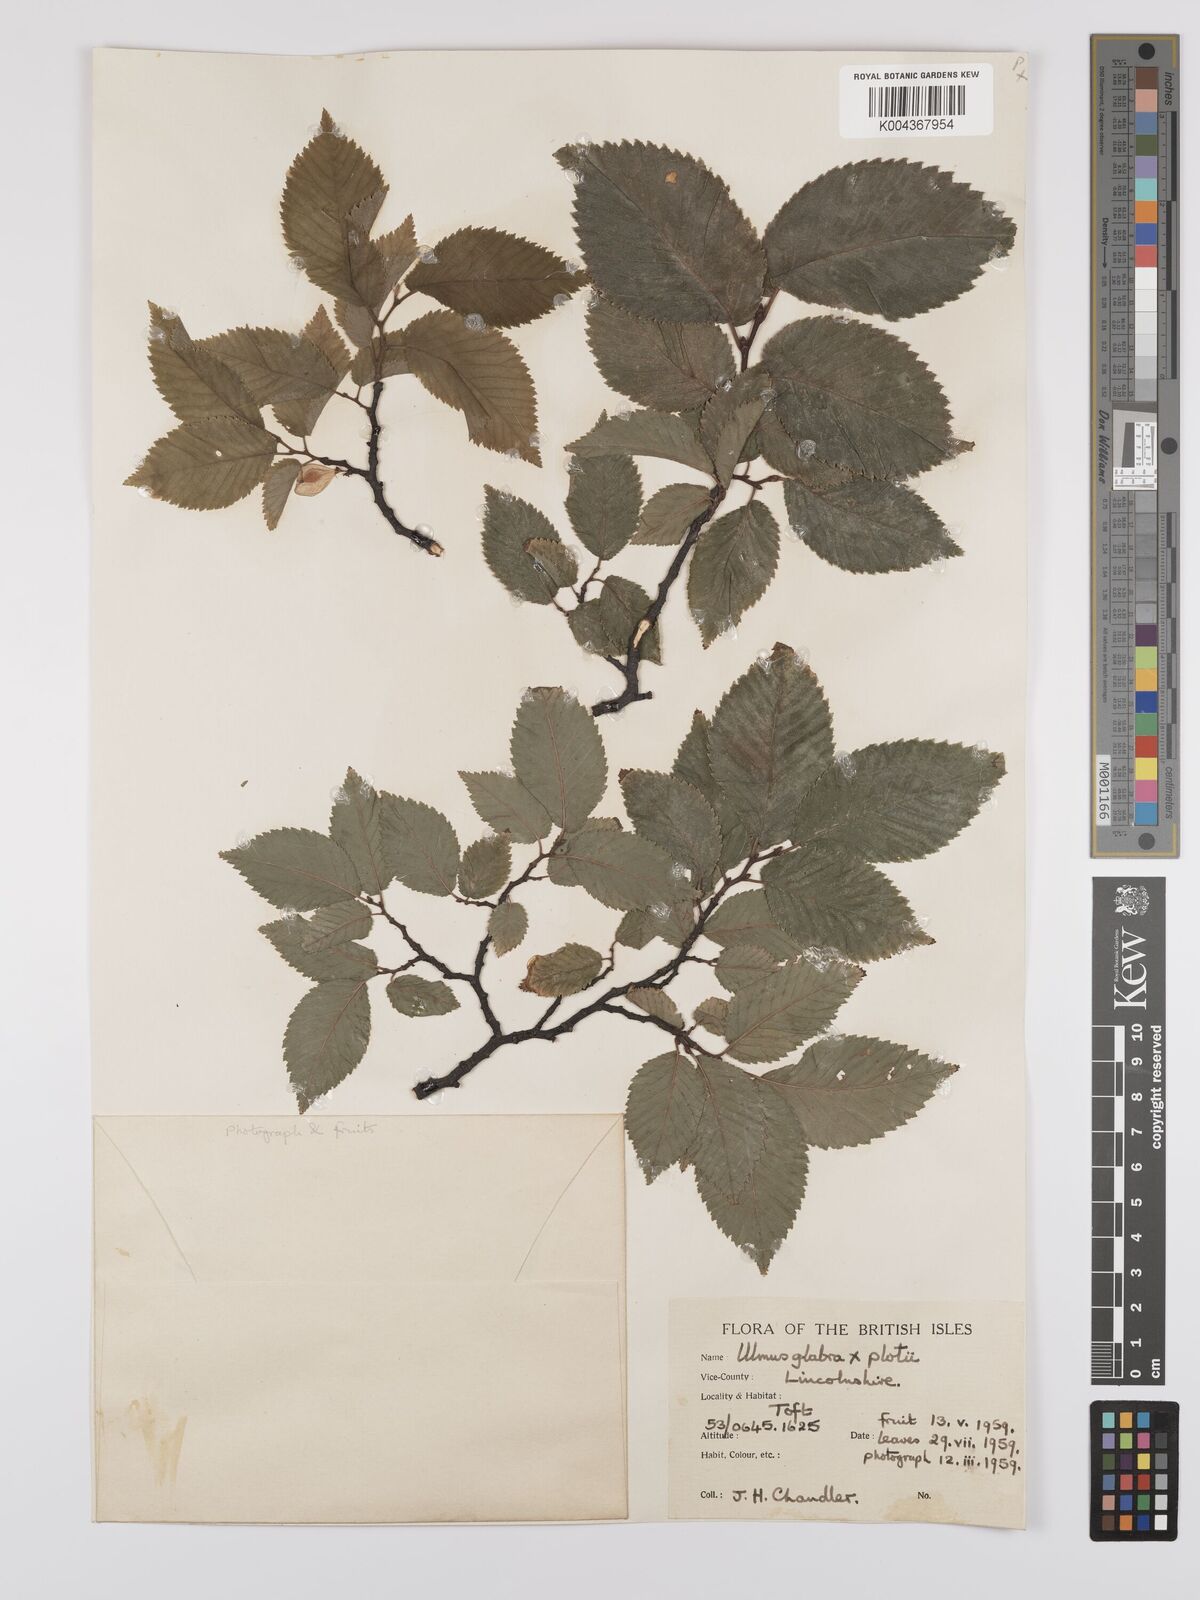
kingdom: Plantae
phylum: Tracheophyta
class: Magnoliopsida
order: Rosales
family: Ulmaceae
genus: Ulmus
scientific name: Ulmus glabra
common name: Wych elm
